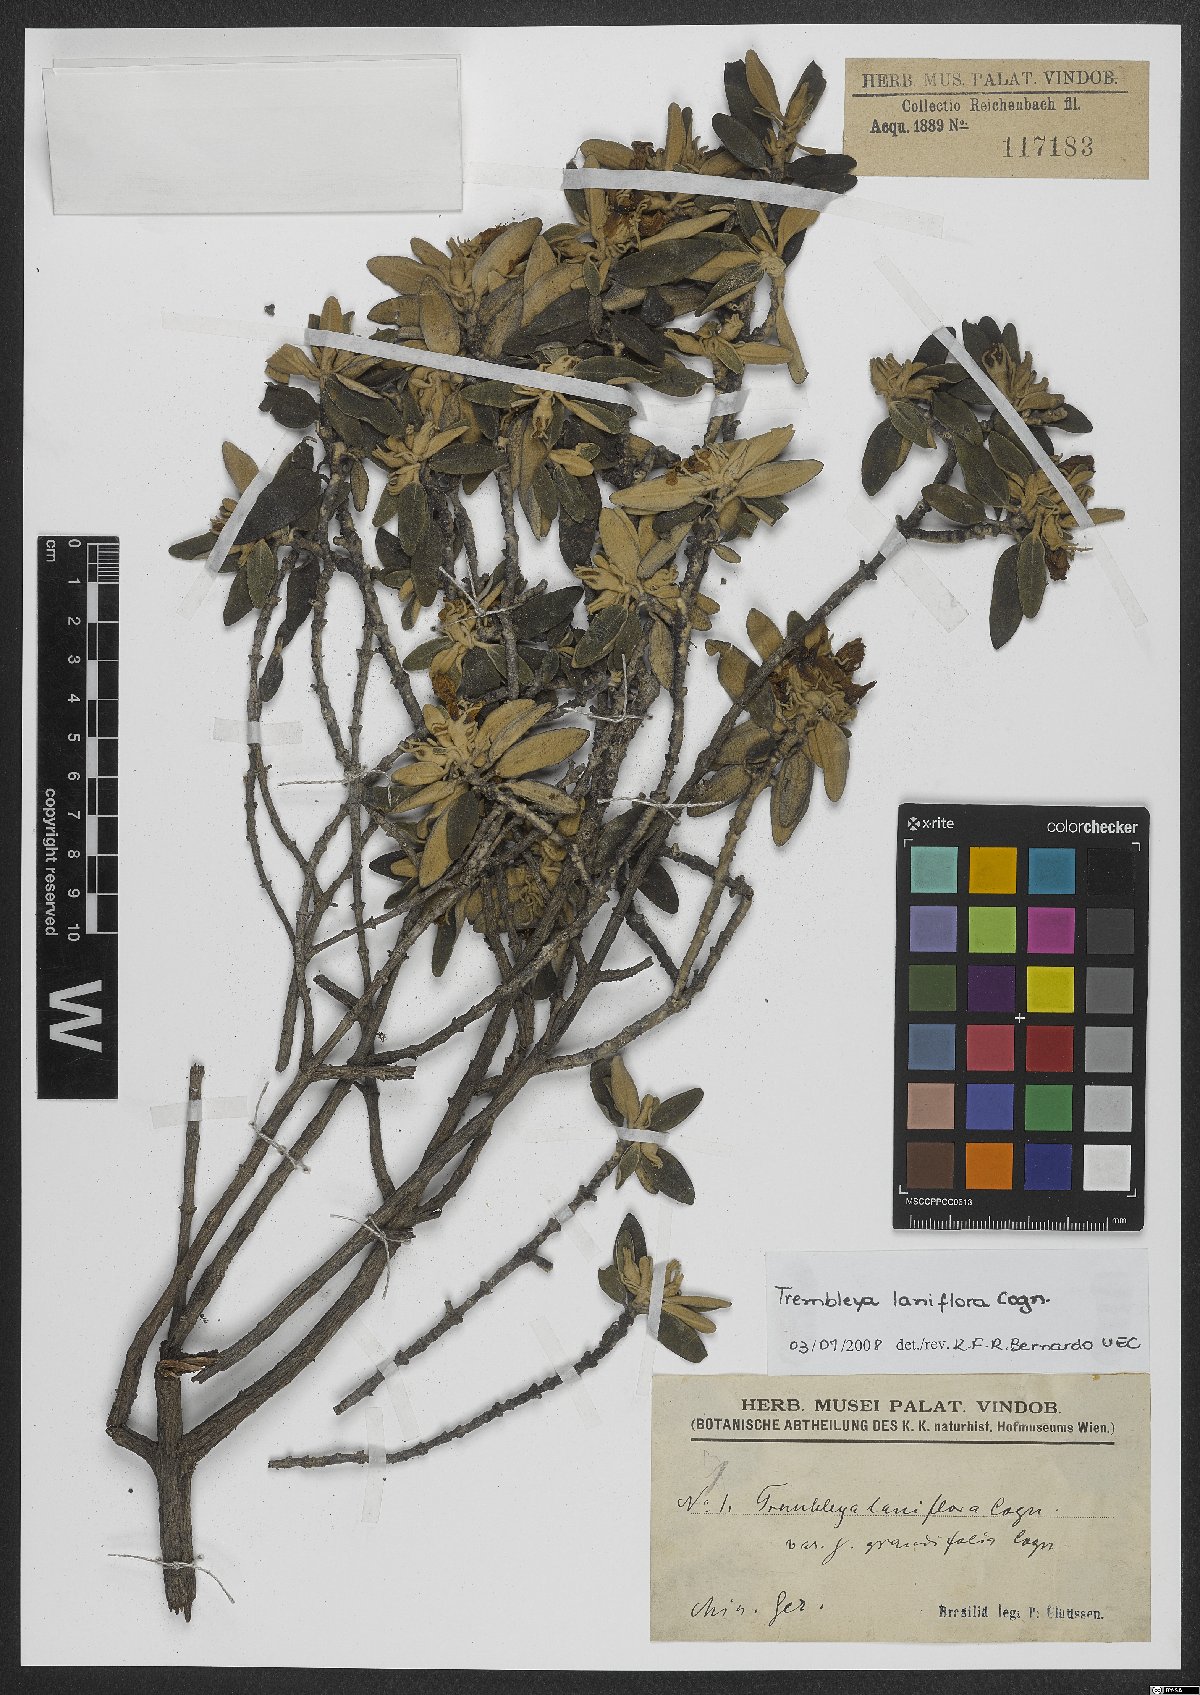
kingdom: Plantae
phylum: Tracheophyta
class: Magnoliopsida
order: Myrtales
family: Melastomataceae
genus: Microlicia
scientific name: Microlicia laniflora
